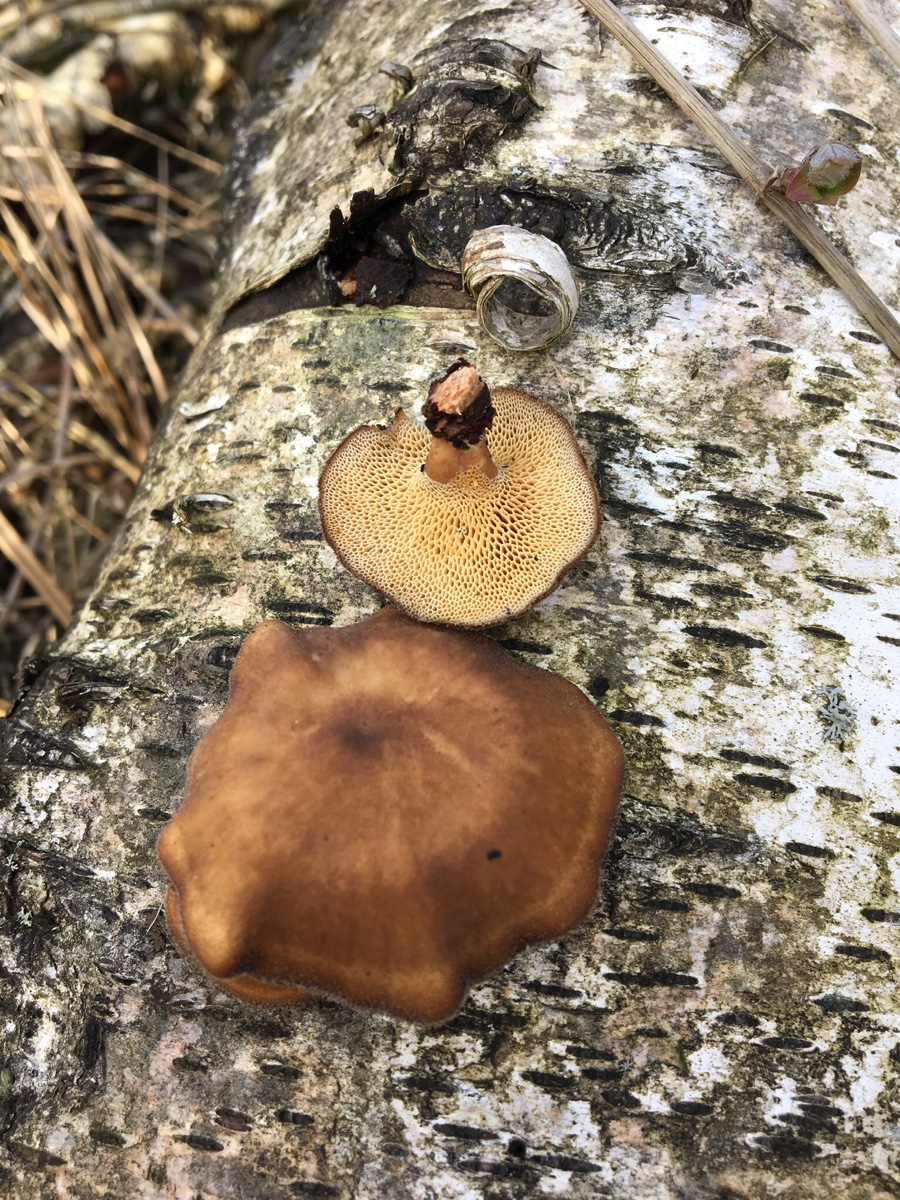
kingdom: Fungi
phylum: Basidiomycota
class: Agaricomycetes
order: Polyporales
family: Polyporaceae
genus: Lentinus
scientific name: Lentinus brumalis
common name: vinter-stilkporesvamp
